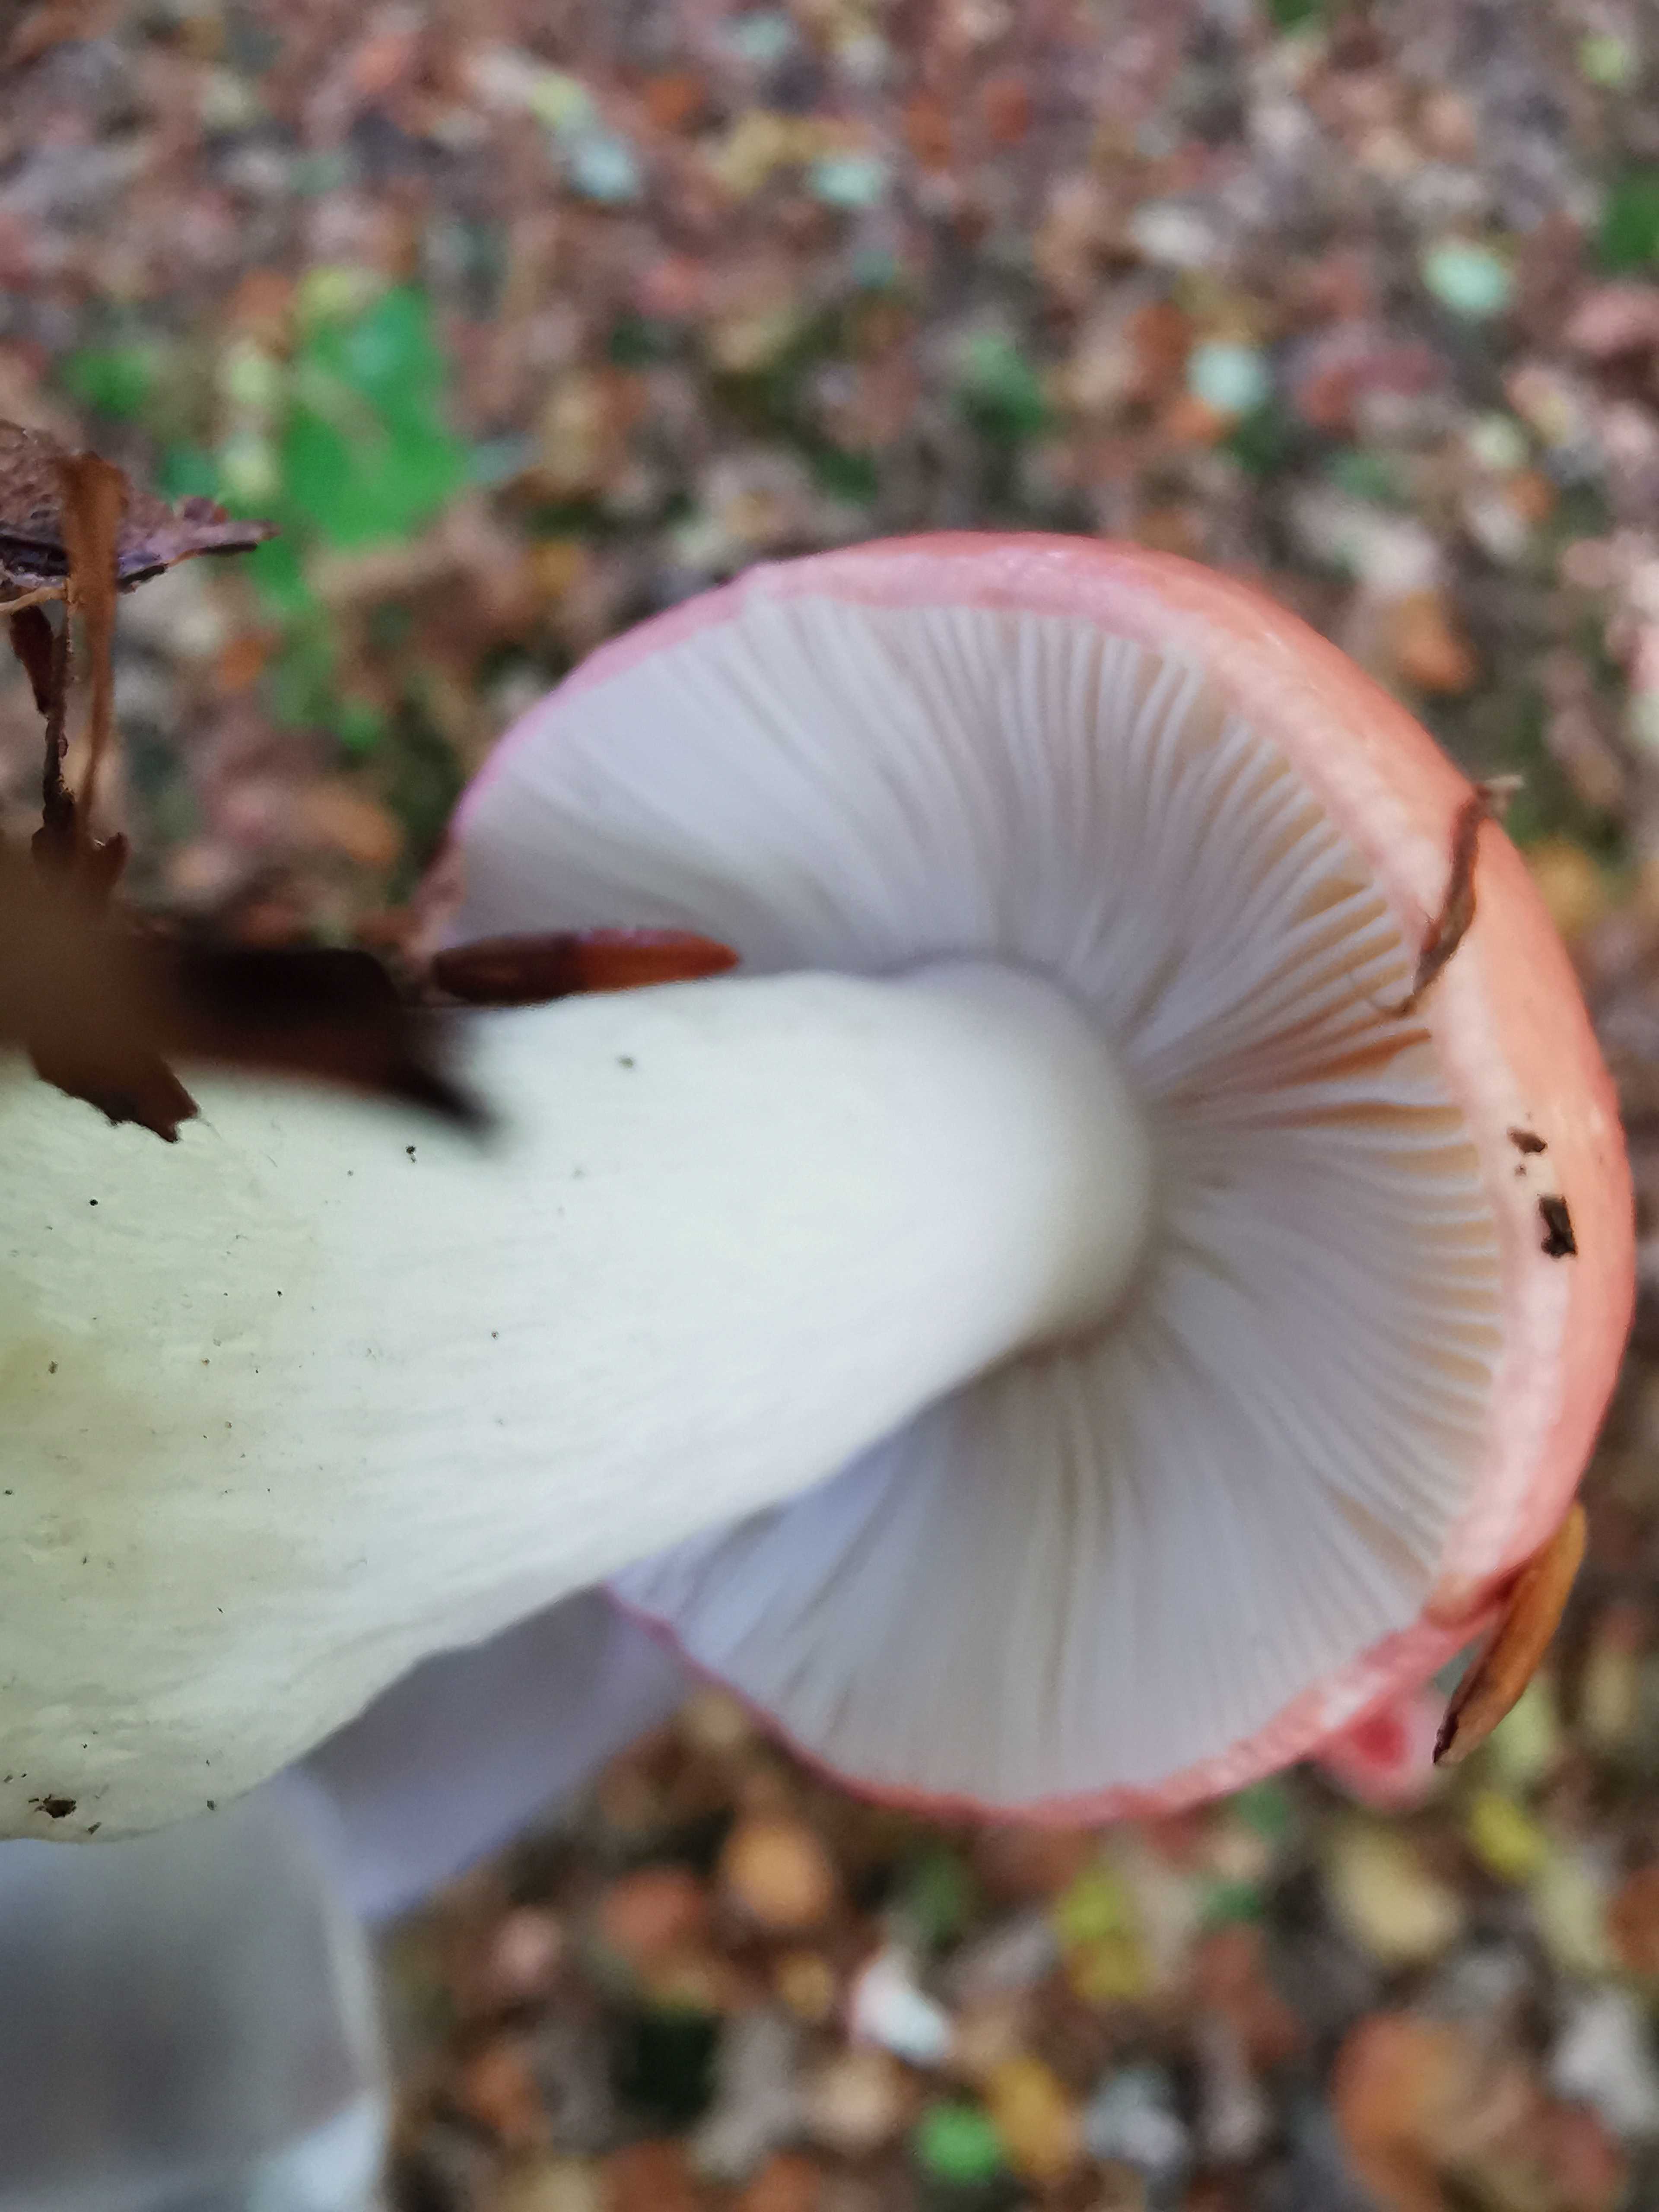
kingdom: Fungi
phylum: Basidiomycota
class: Agaricomycetes
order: Russulales
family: Russulaceae
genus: Russula
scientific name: Russula nobilis
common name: lille gift-skørhat
